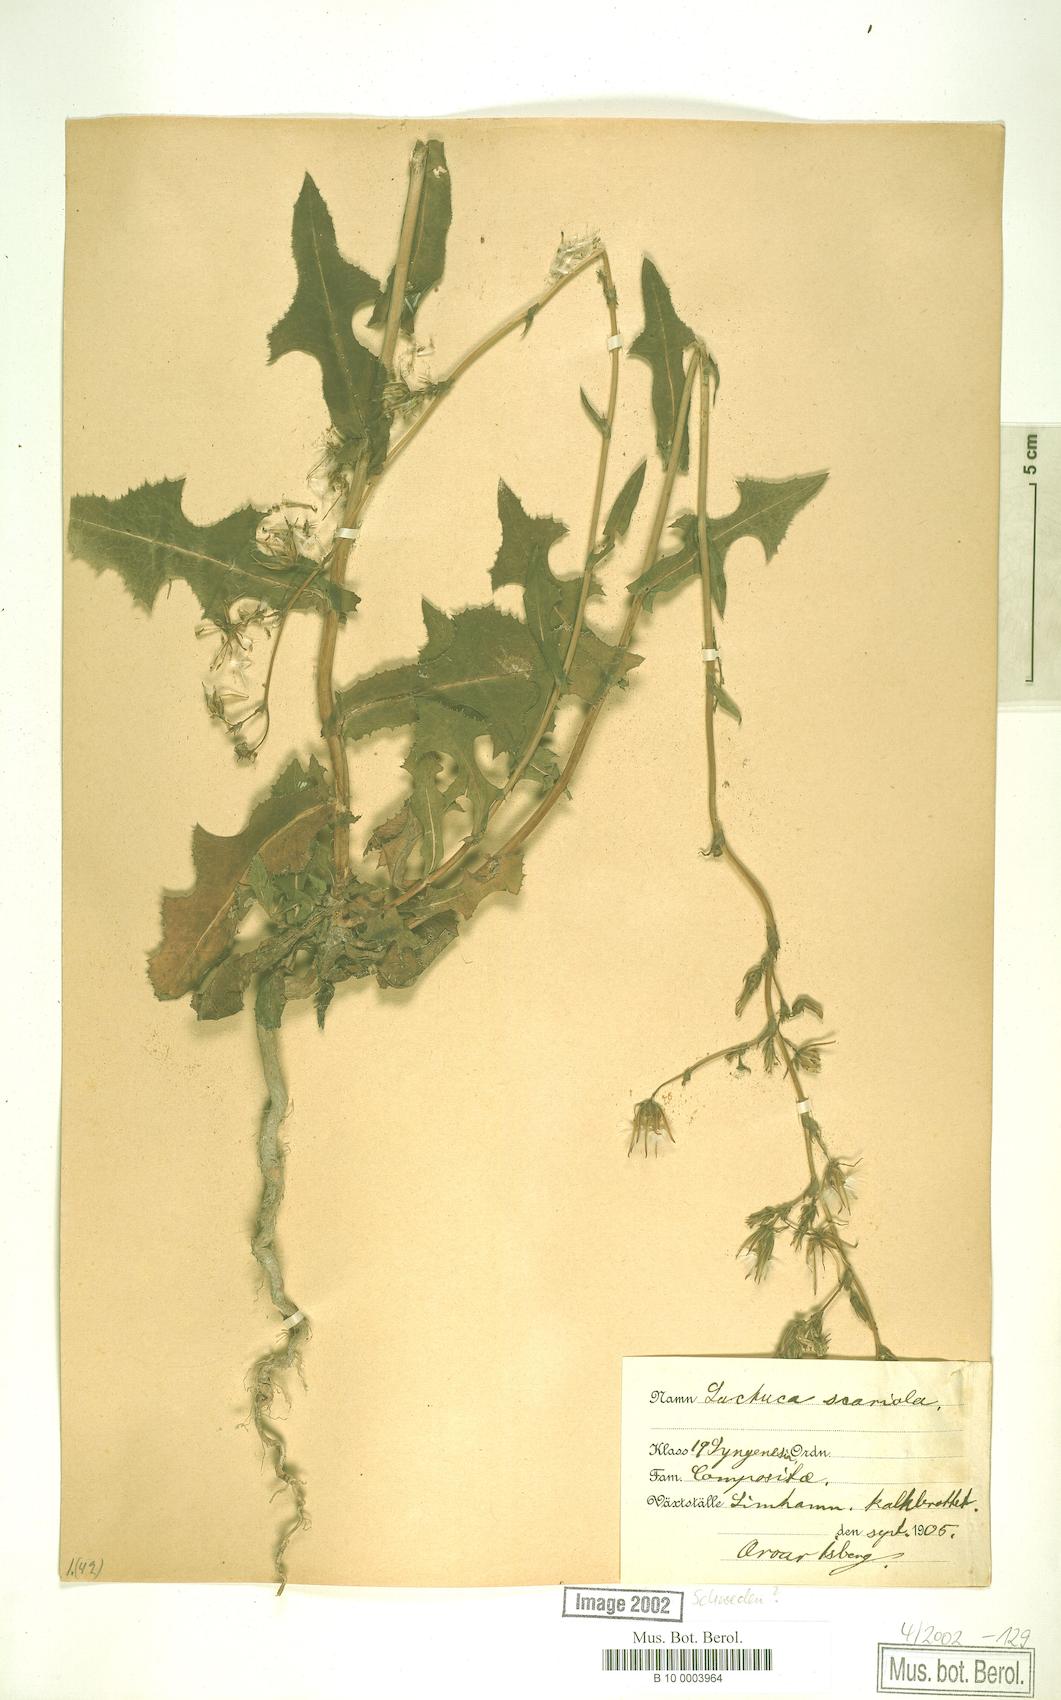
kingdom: Plantae
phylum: Tracheophyta
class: Magnoliopsida
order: Asterales
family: Asteraceae
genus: Lactuca
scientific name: Lactuca serriola
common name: Prickly lettuce
